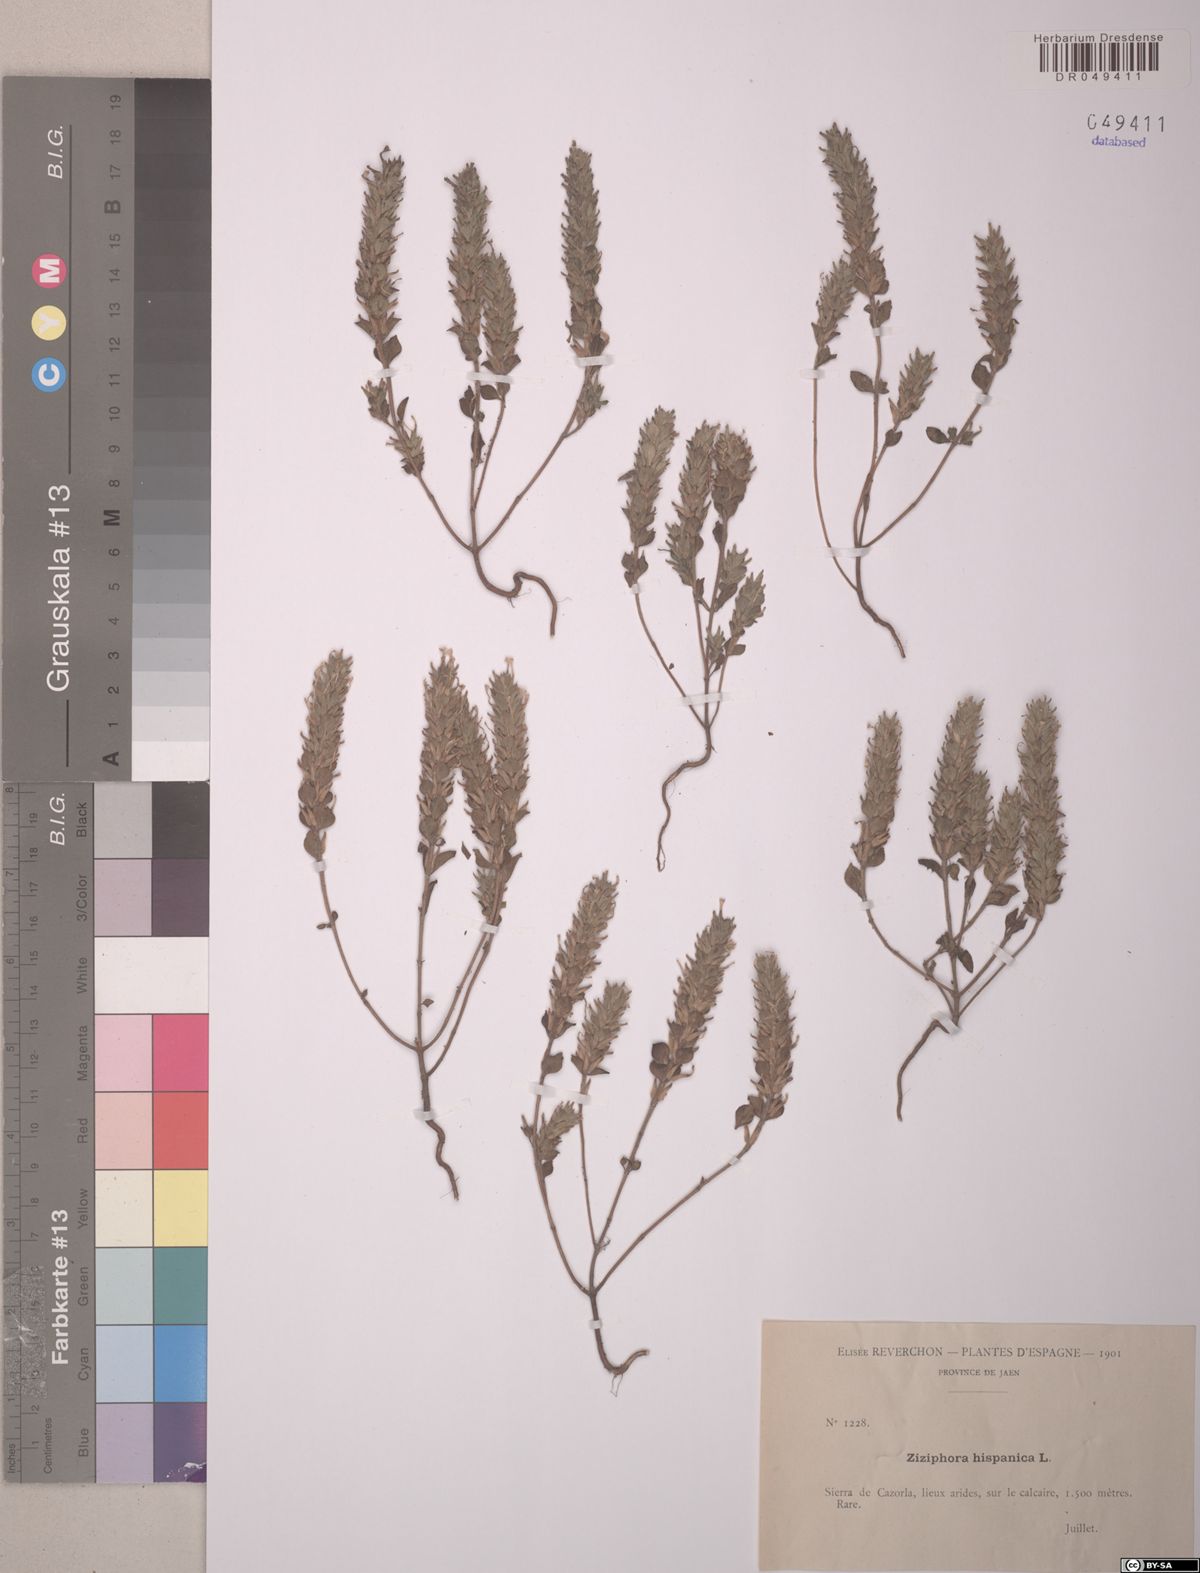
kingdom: Plantae
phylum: Tracheophyta
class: Magnoliopsida
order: Lamiales
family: Lamiaceae
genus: Ziziphora
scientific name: Ziziphora hispanica
